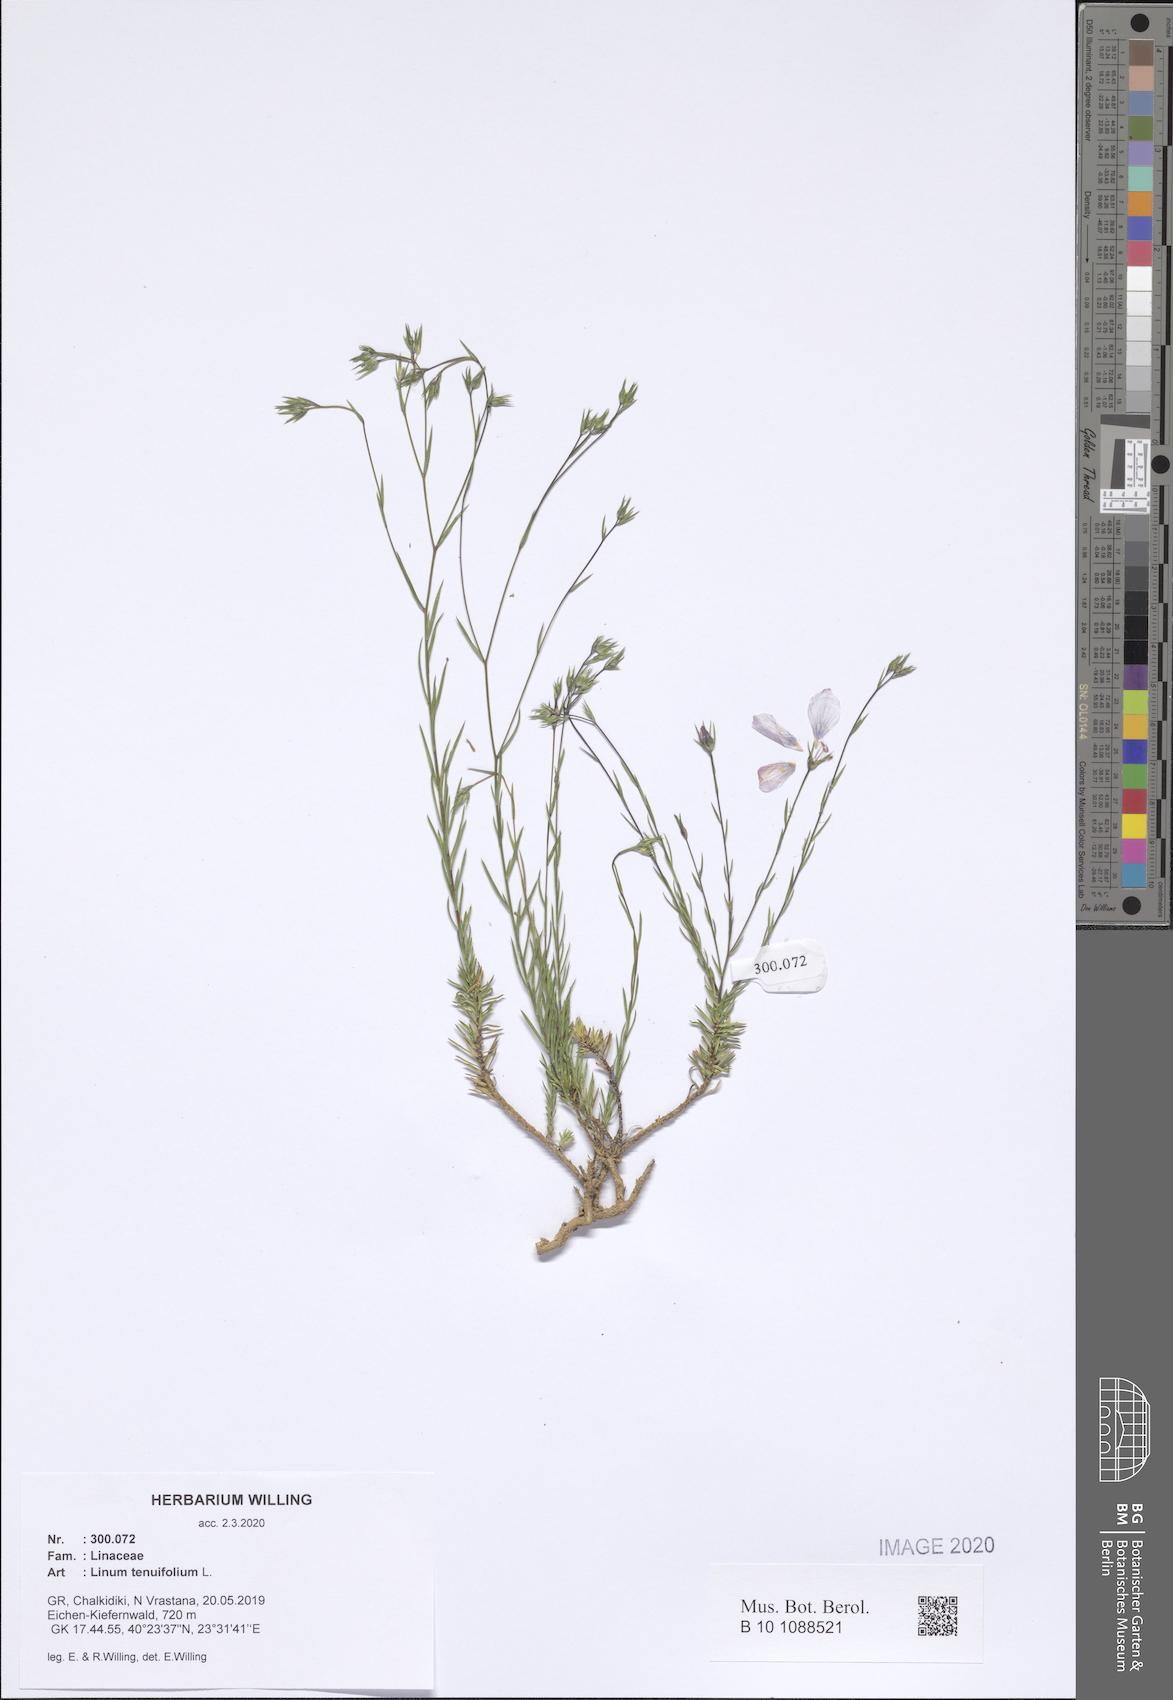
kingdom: Plantae
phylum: Tracheophyta
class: Magnoliopsida
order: Malpighiales
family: Linaceae
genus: Linum
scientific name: Linum tenuifolium
